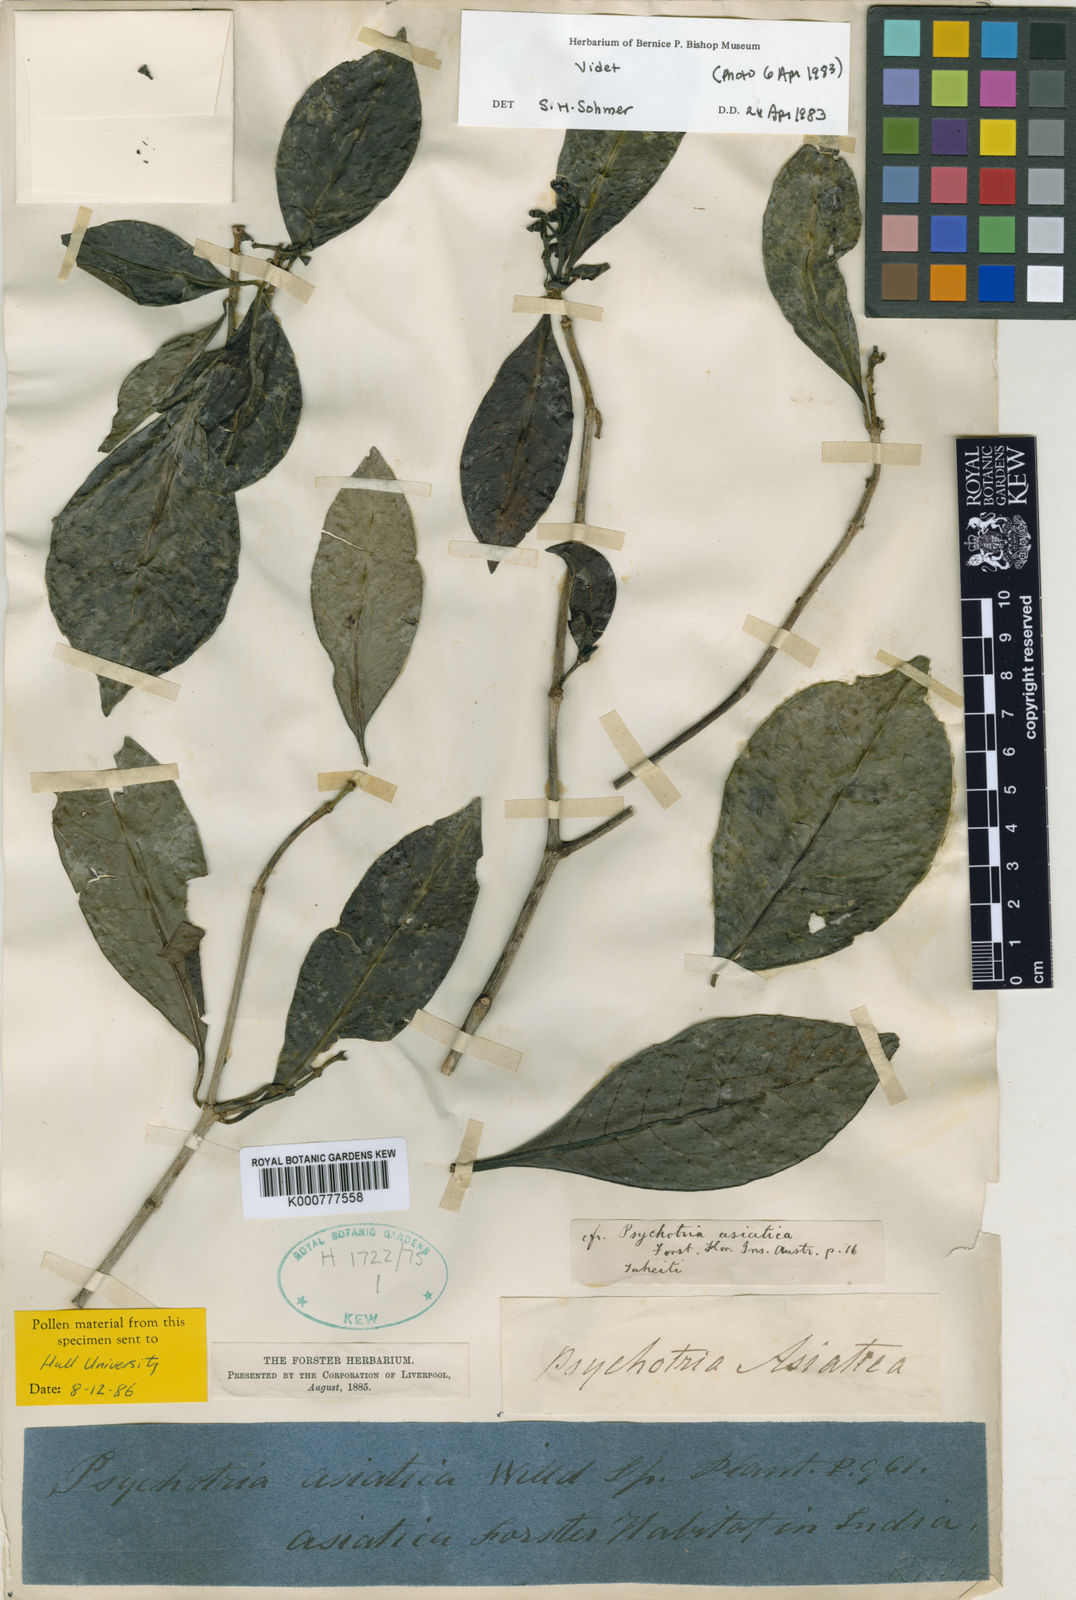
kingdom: Plantae
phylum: Tracheophyta
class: Magnoliopsida
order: Gentianales
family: Rubiaceae
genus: Psychotria
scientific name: Psychotria tahitensis
